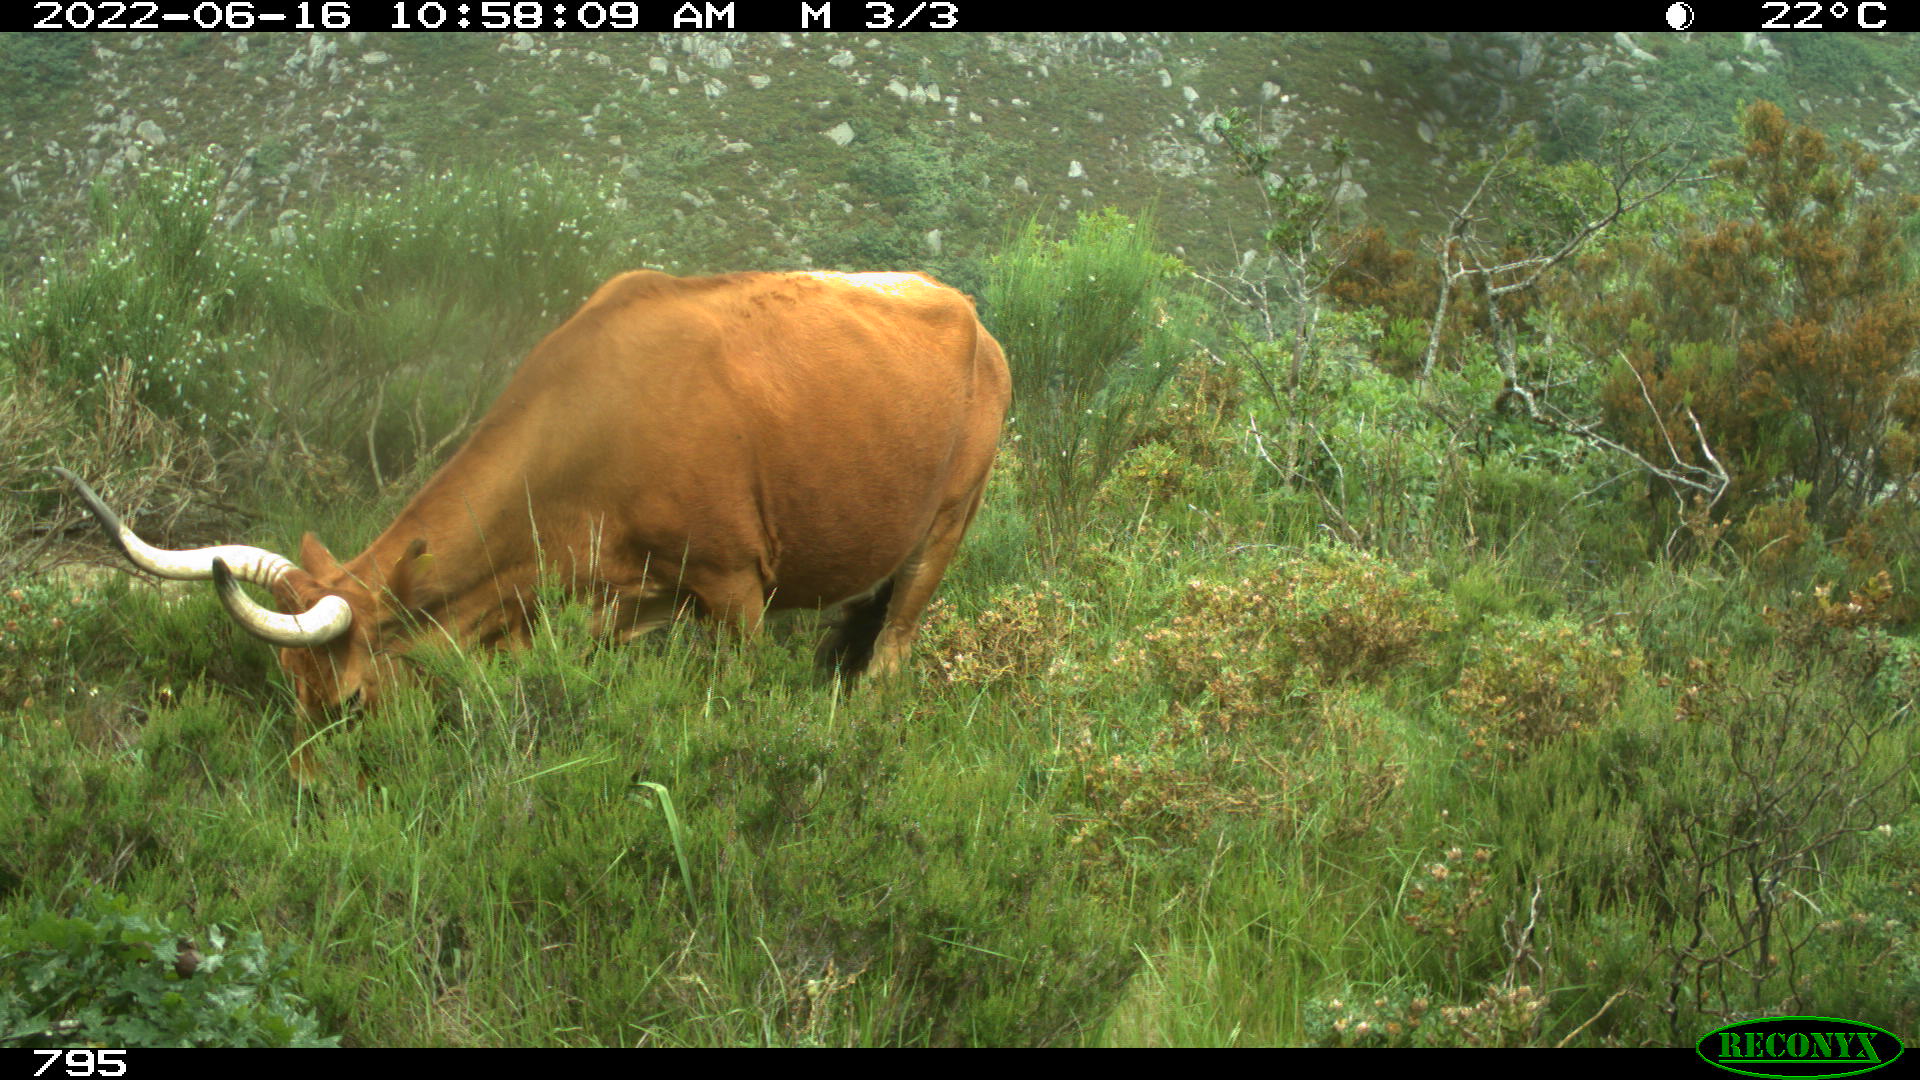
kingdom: Animalia
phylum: Chordata
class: Mammalia
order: Artiodactyla
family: Bovidae
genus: Bos
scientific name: Bos taurus
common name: Domesticated cattle
